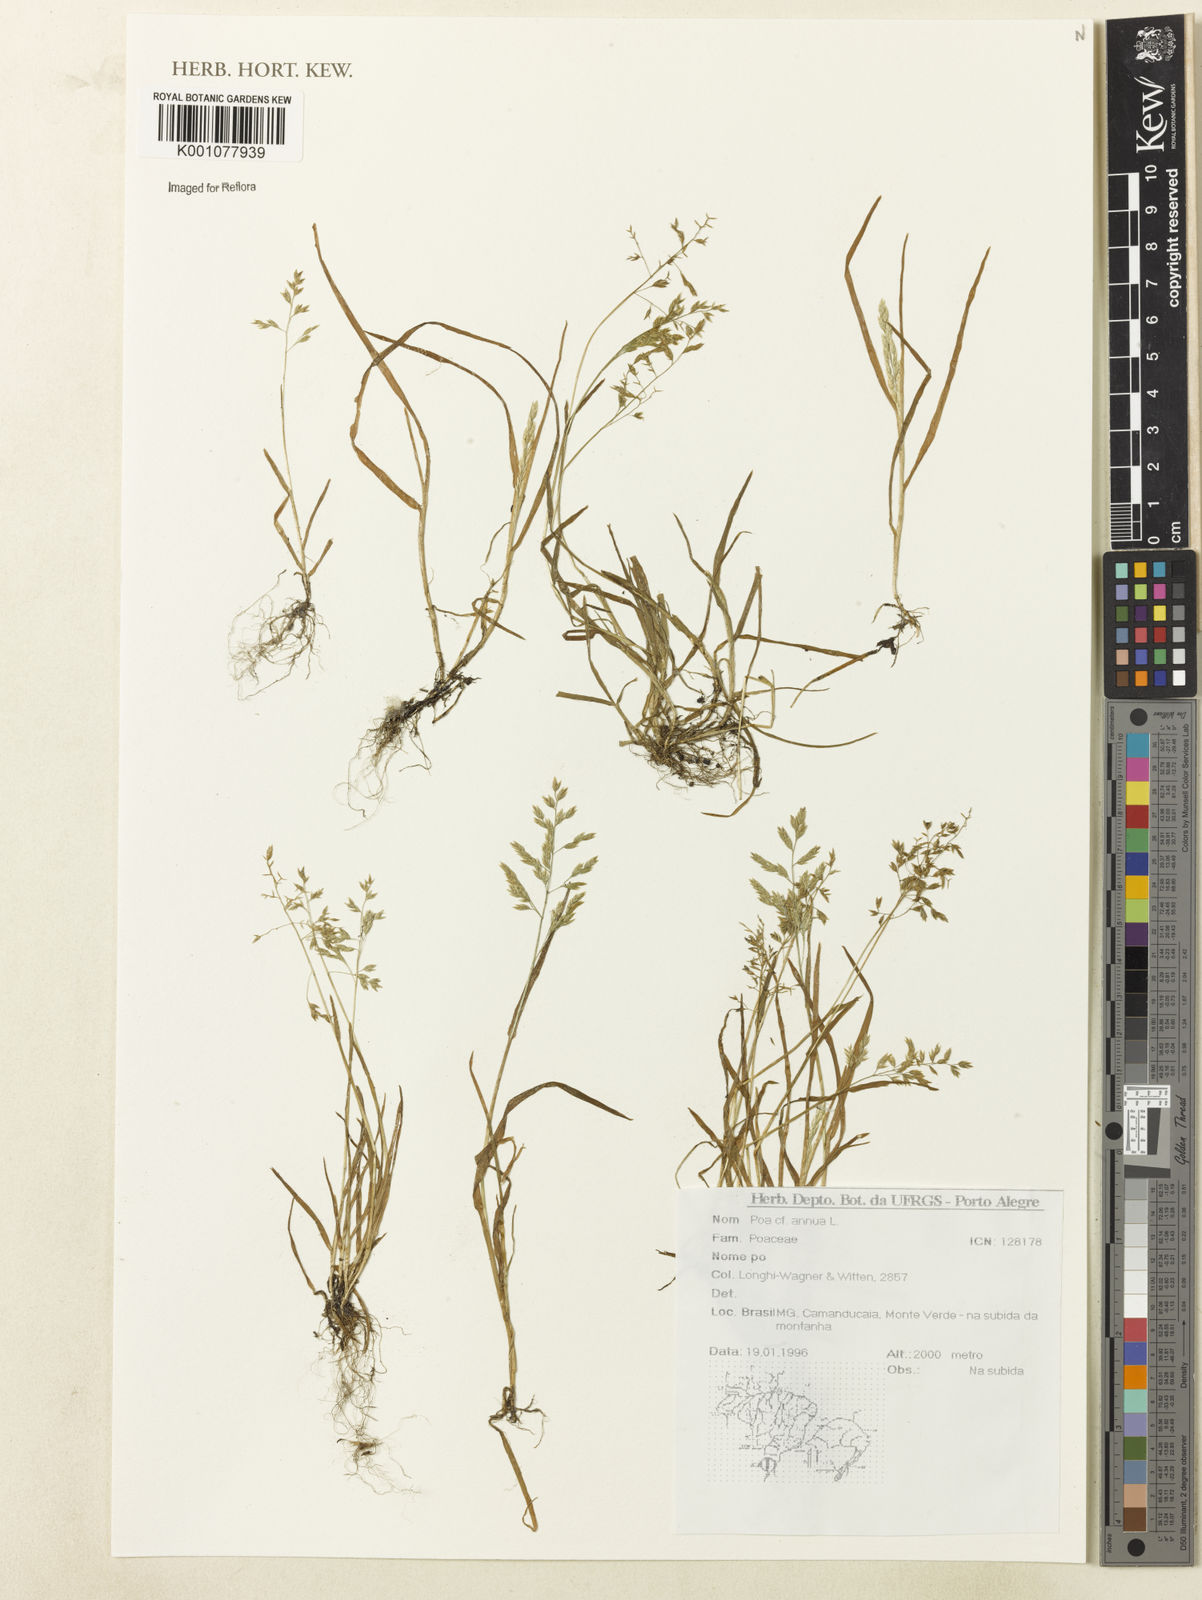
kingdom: Plantae
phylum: Tracheophyta
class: Liliopsida
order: Poales
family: Poaceae
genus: Poa
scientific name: Poa annua
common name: Annual bluegrass
